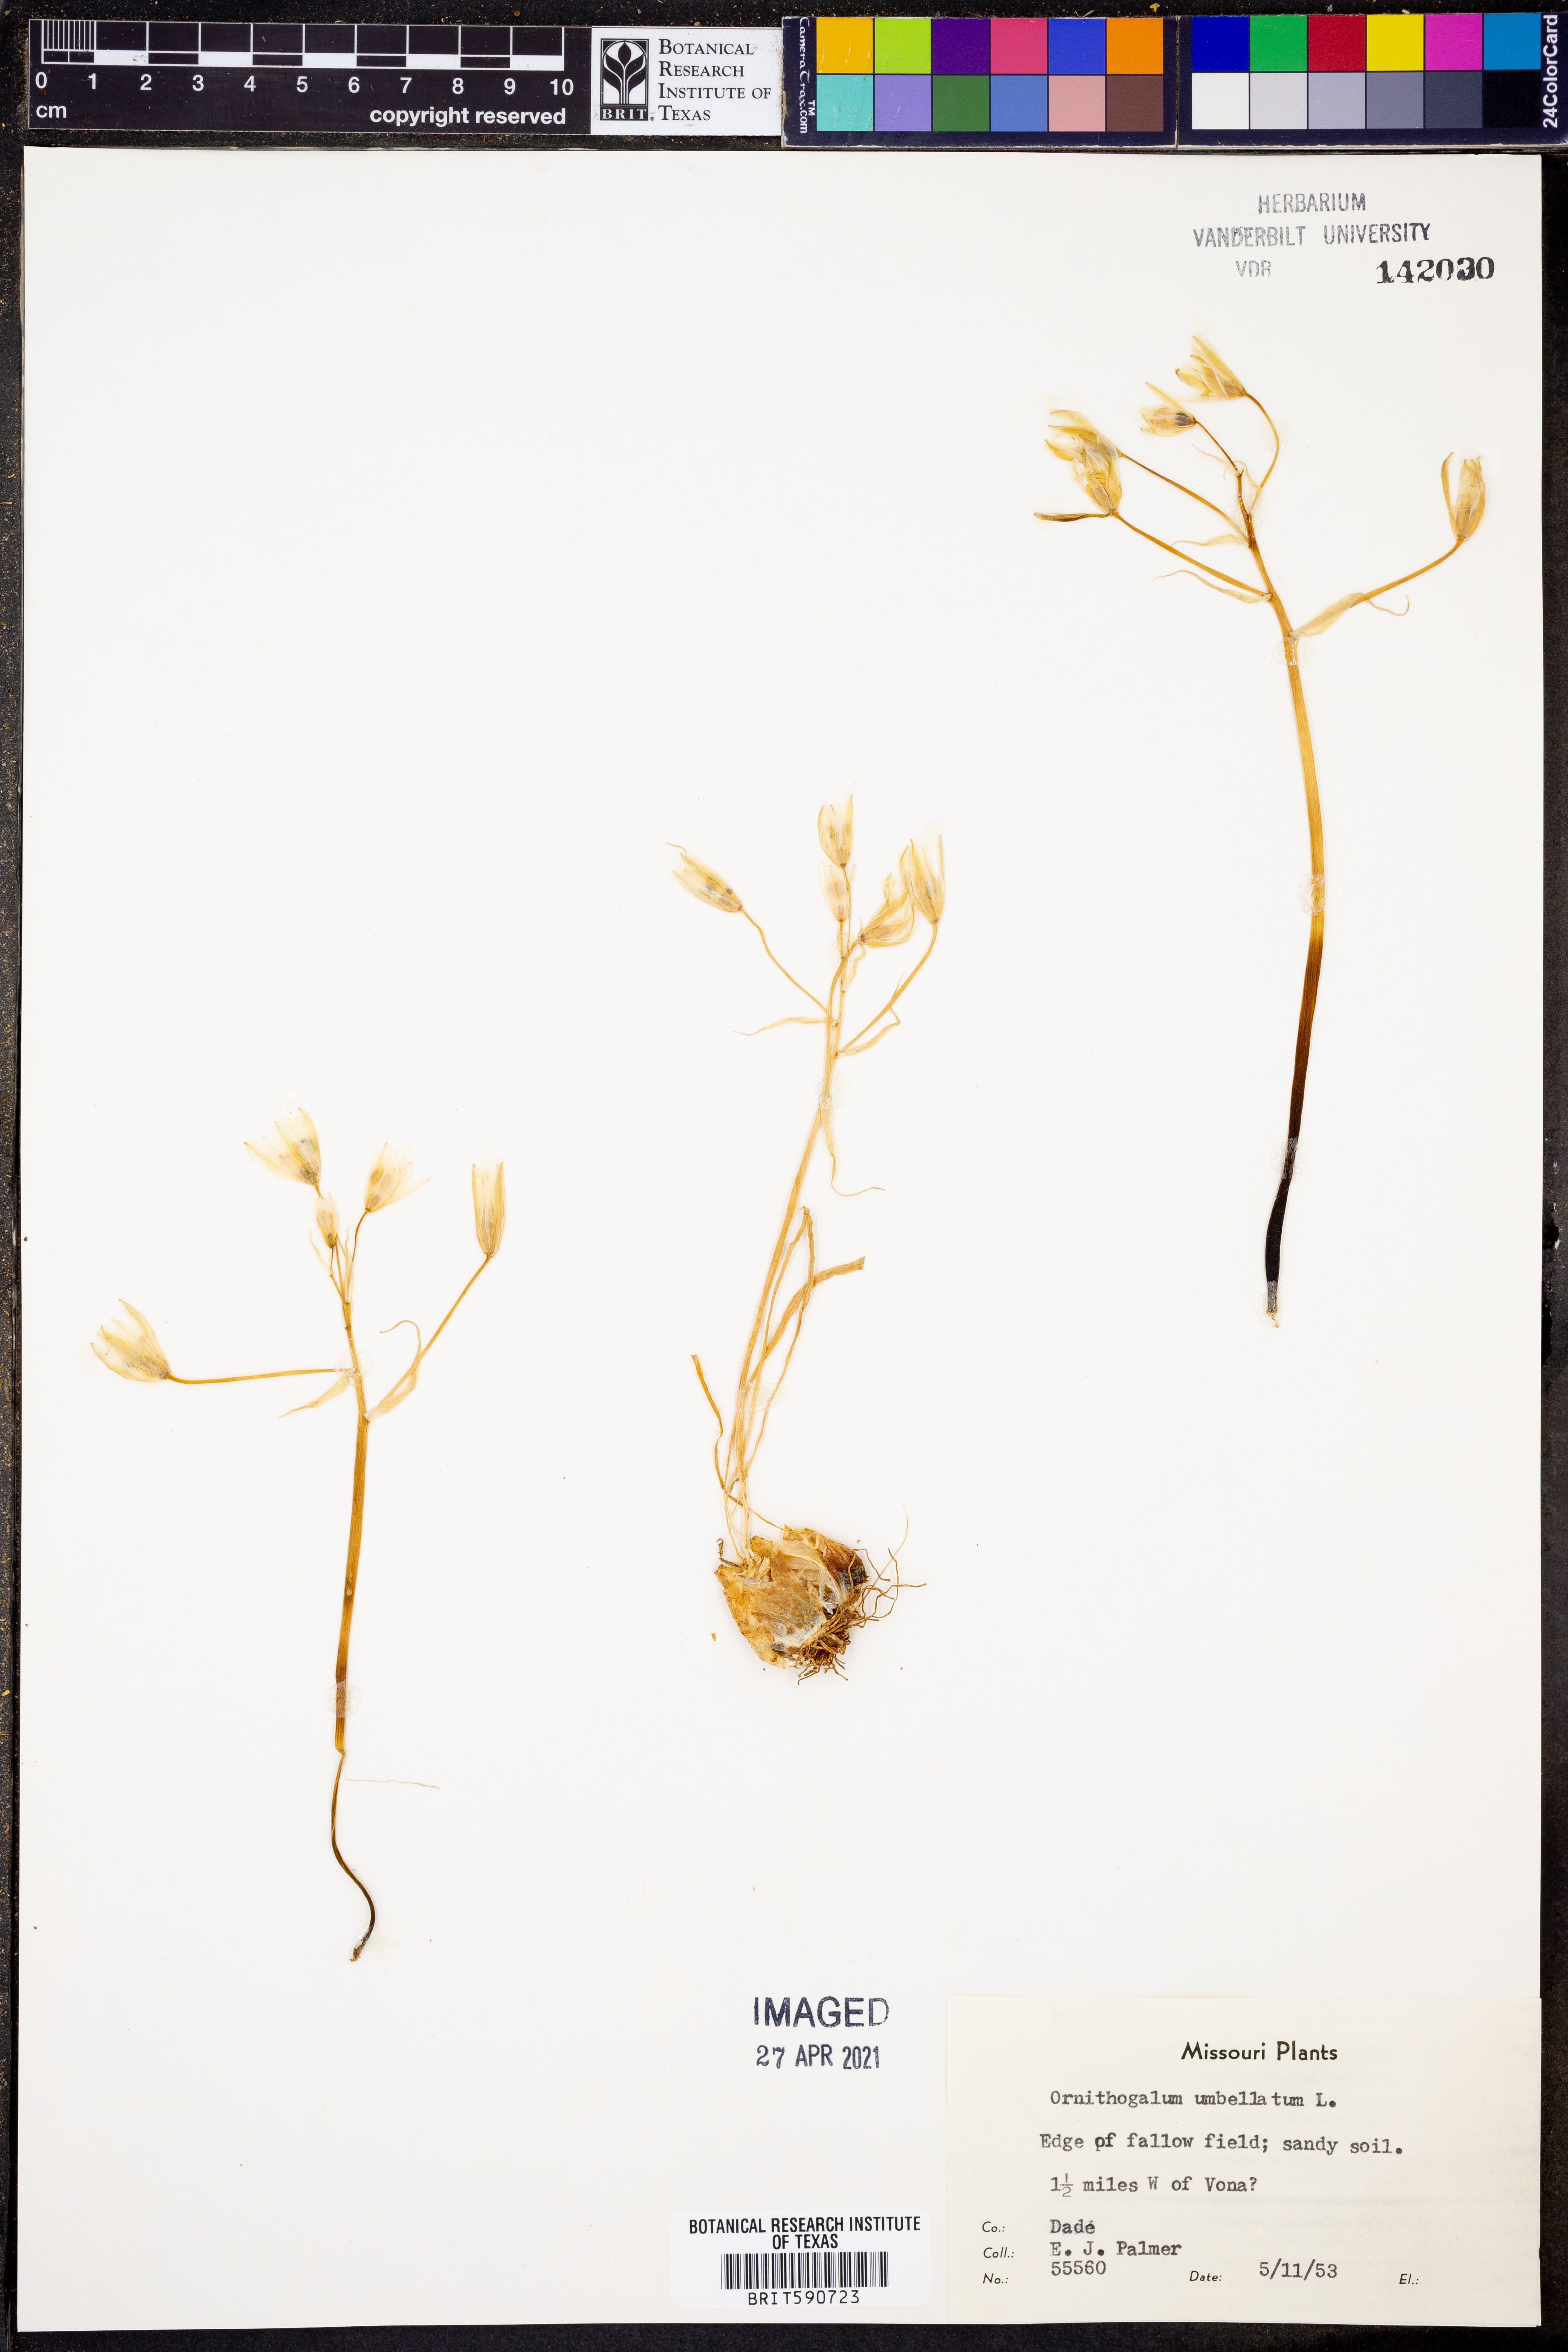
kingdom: Plantae
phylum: Tracheophyta
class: Liliopsida
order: Asparagales
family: Asparagaceae
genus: Ornithogalum
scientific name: Ornithogalum umbellatum
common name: Garden star-of-bethlehem
